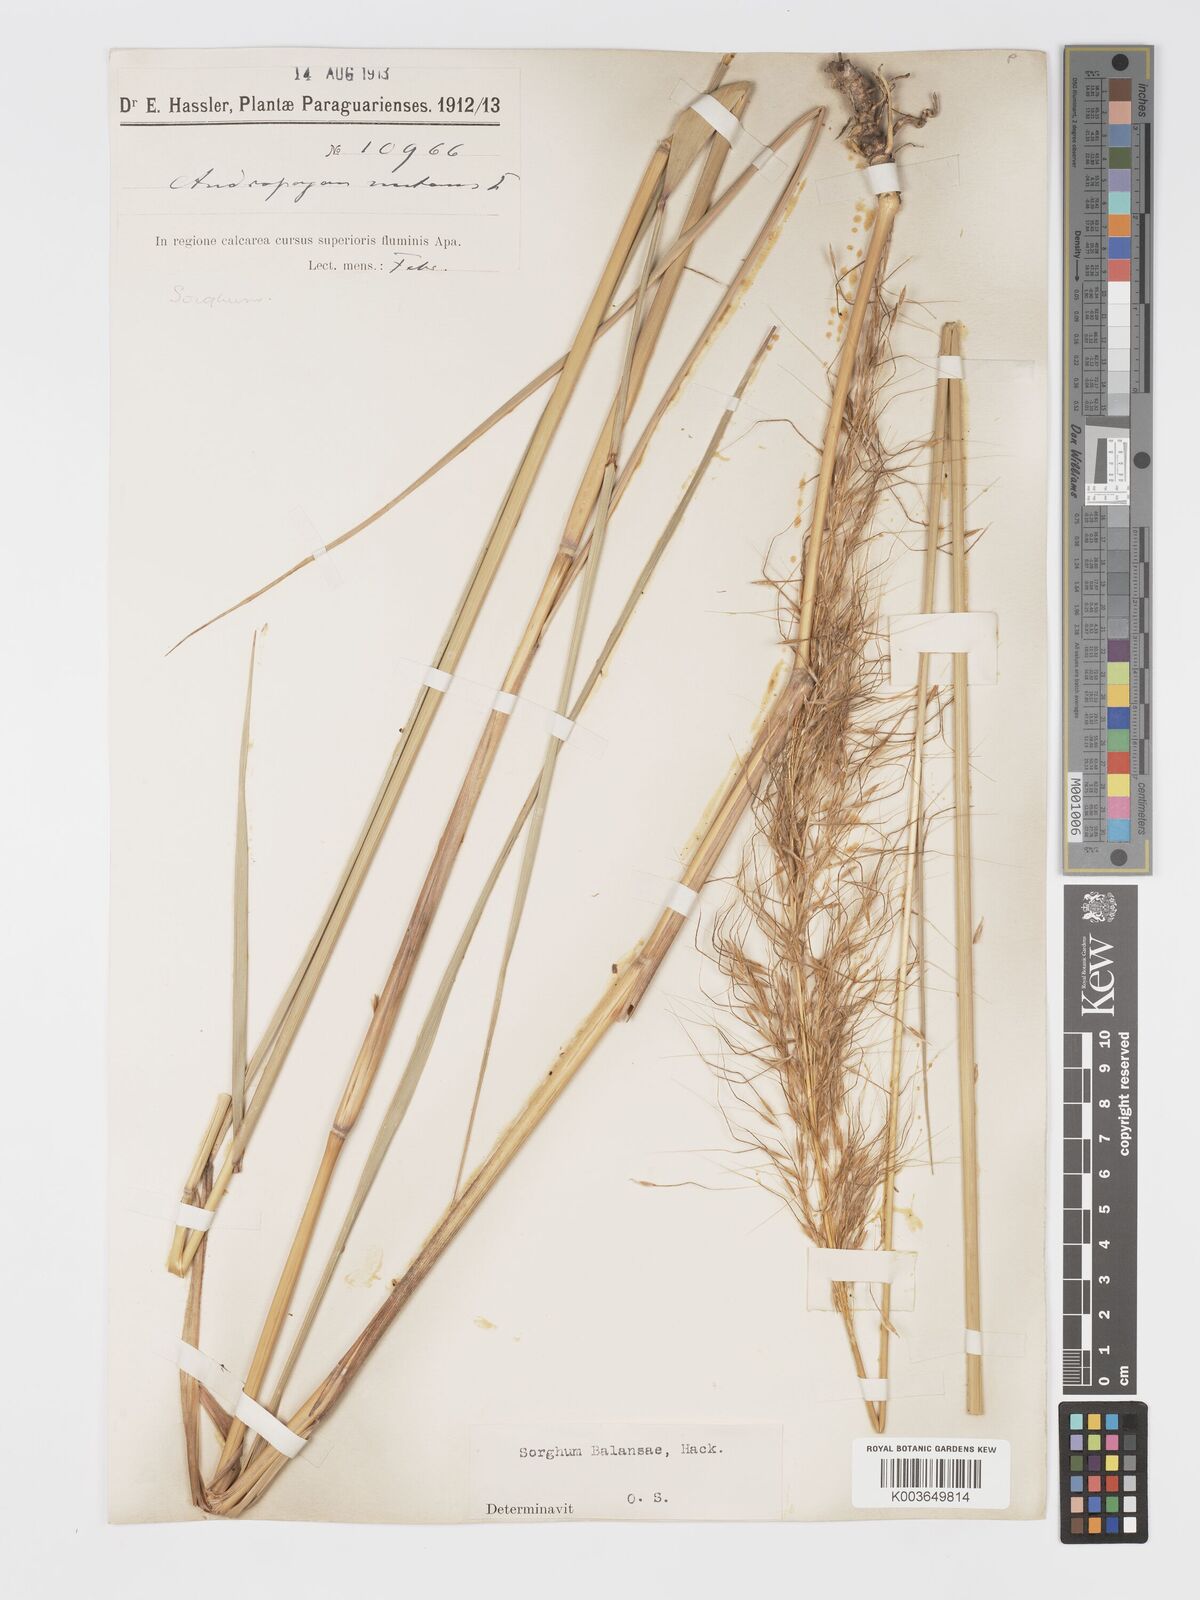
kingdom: Plantae
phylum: Tracheophyta
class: Liliopsida
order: Poales
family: Poaceae
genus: Sorghastrum
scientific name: Sorghastrum balansae
